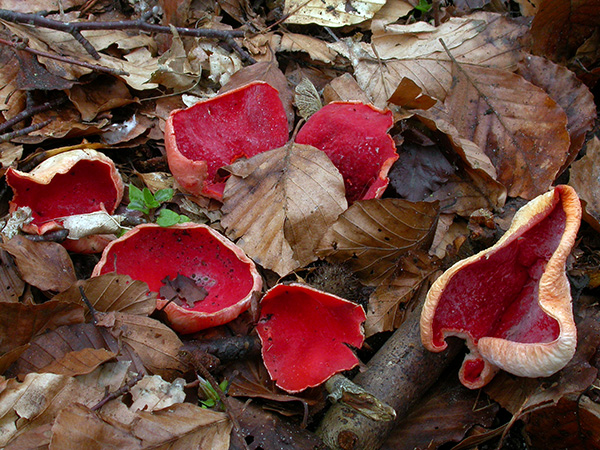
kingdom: Fungi
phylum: Ascomycota
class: Pezizomycetes
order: Pezizales
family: Sarcoscyphaceae
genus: Sarcoscypha
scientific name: Sarcoscypha coccinea
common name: skarlagen-pragtbæger
